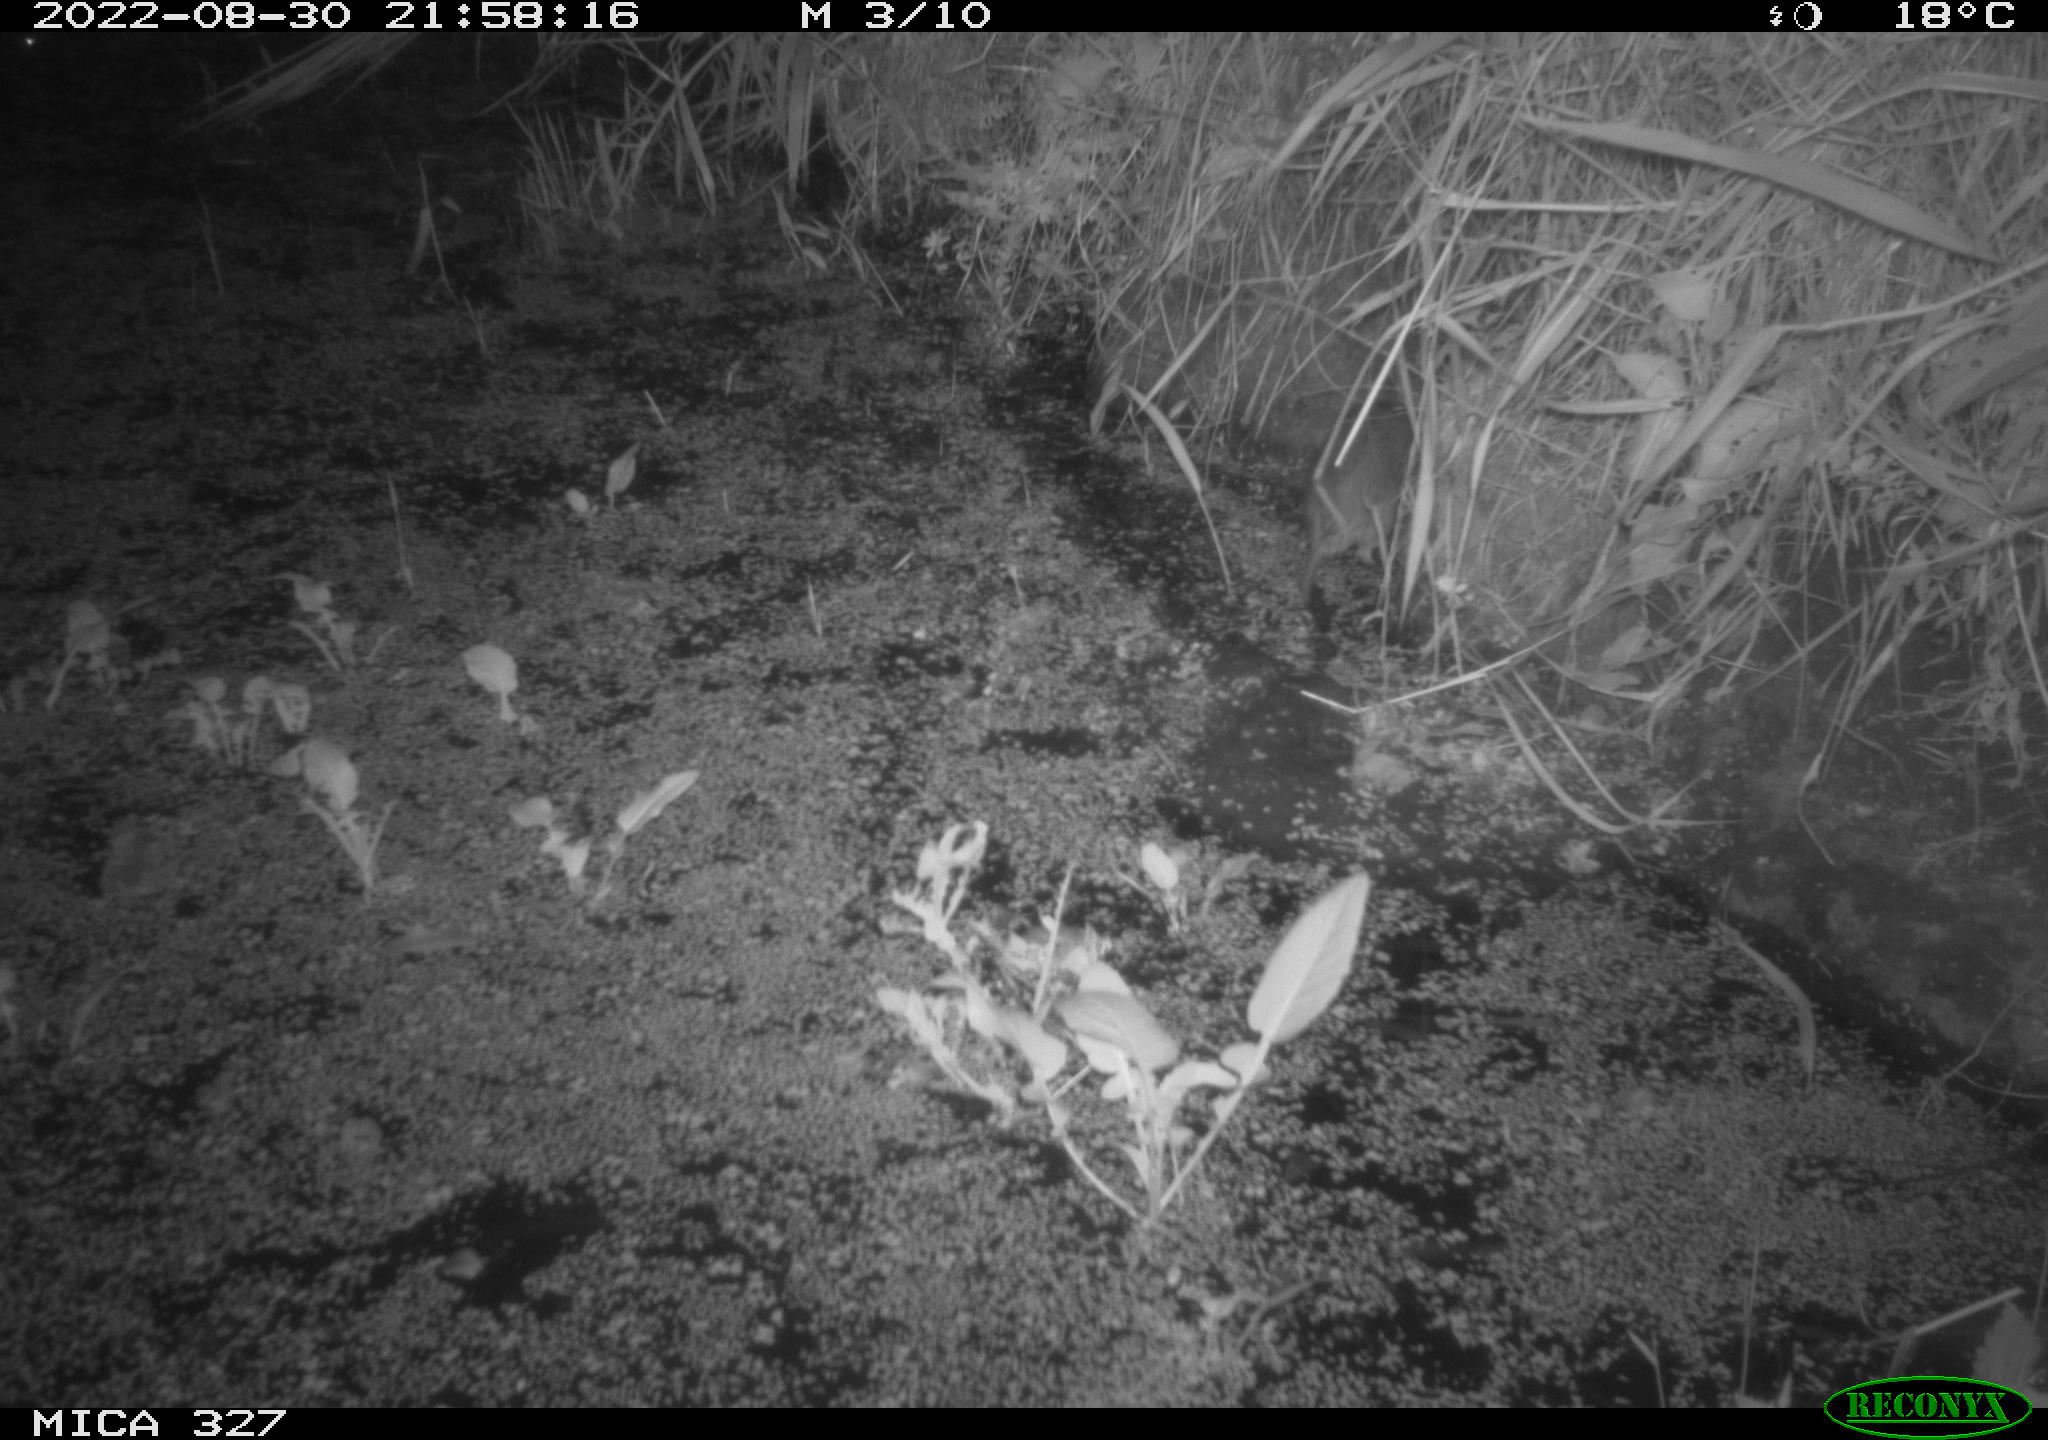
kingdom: Animalia
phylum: Chordata
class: Mammalia
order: Rodentia
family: Muridae
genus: Rattus
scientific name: Rattus norvegicus
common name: Brown rat
